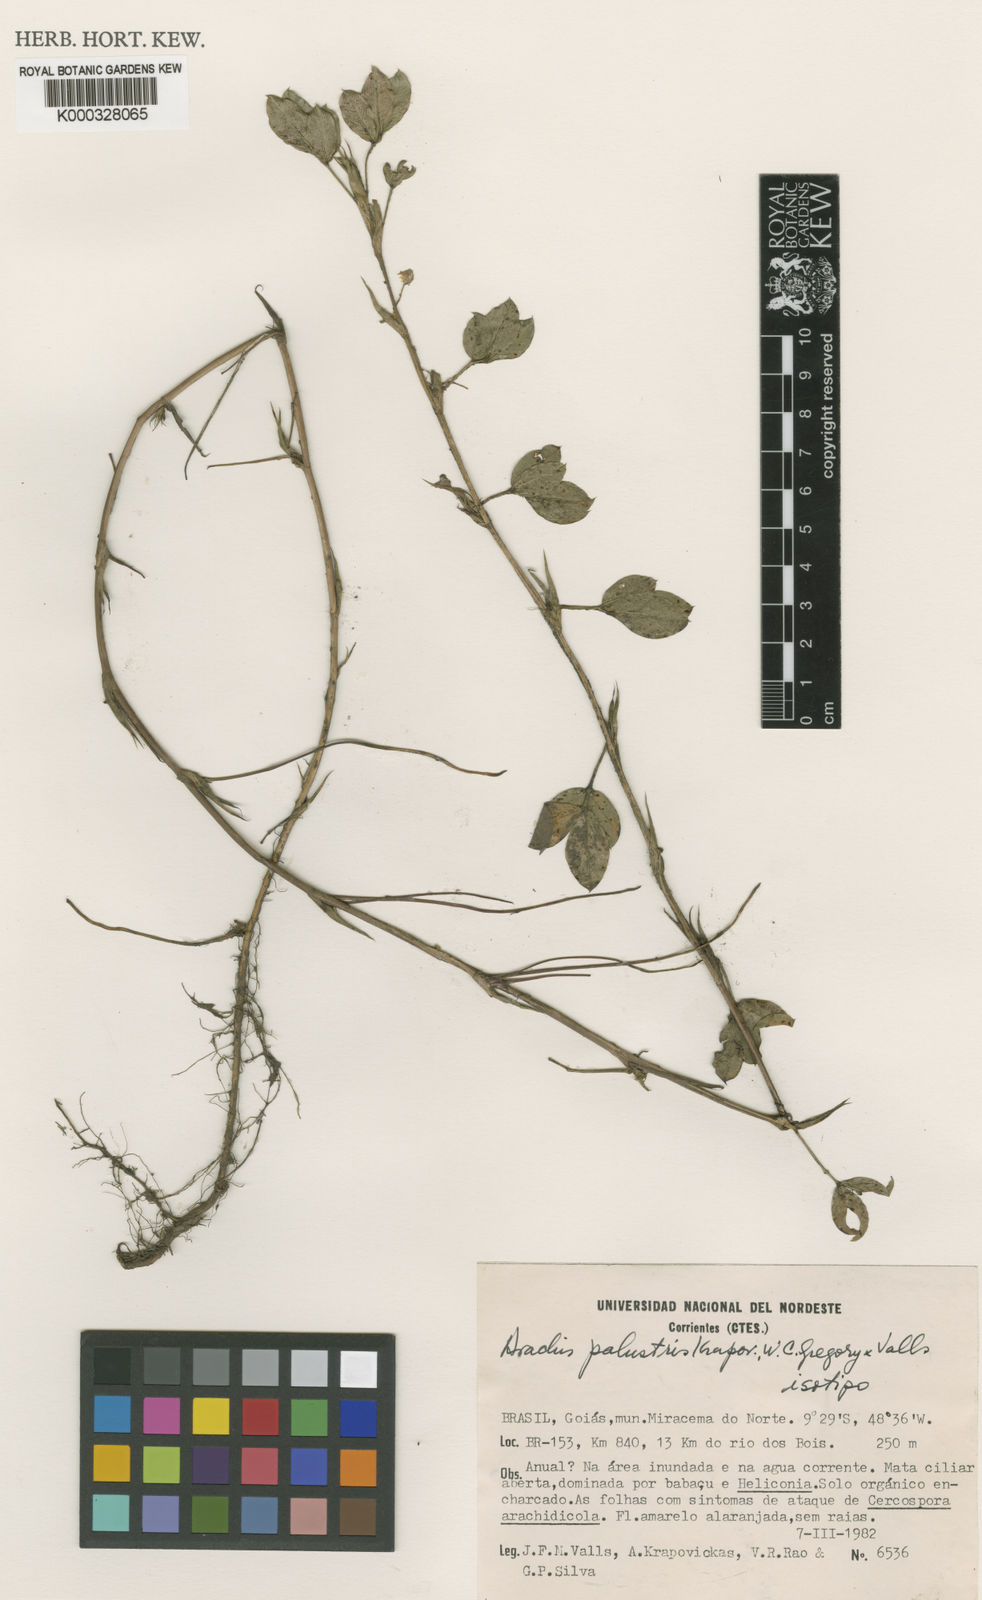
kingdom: Plantae
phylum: Tracheophyta
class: Magnoliopsida
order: Fabales
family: Fabaceae
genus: Arachis
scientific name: Arachis
